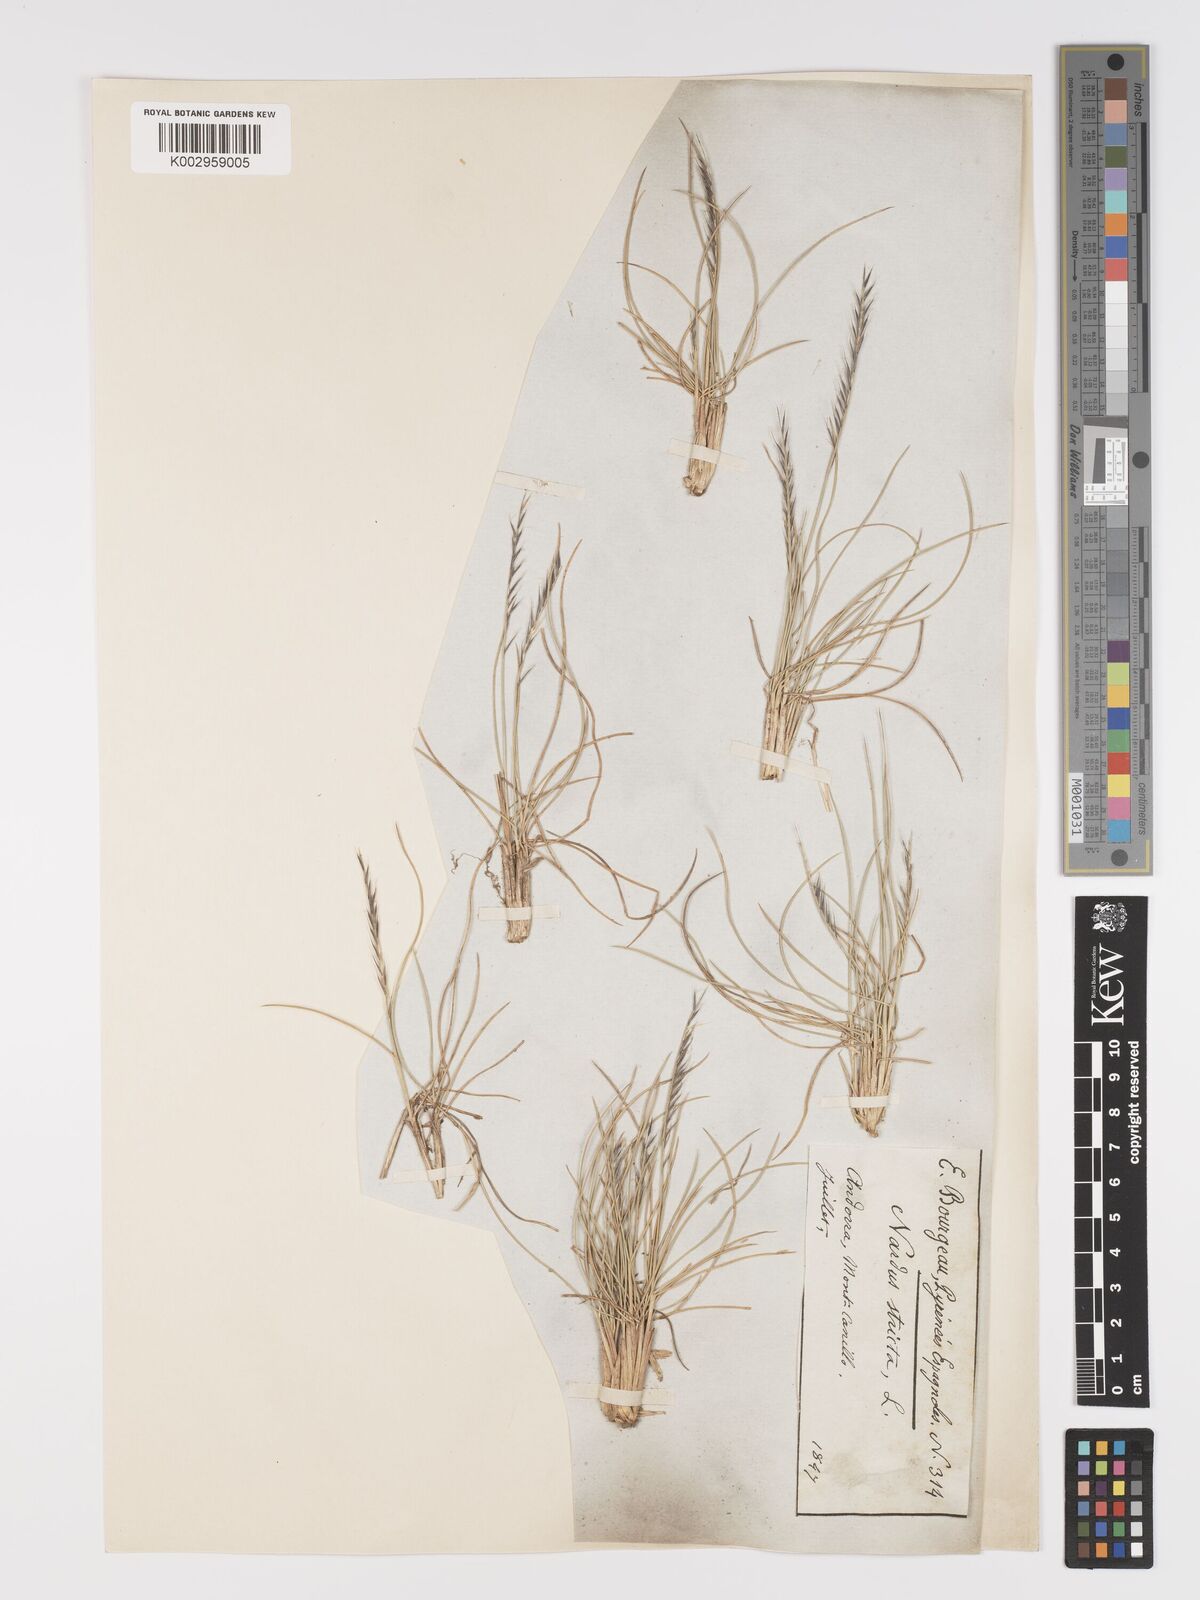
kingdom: Plantae
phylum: Tracheophyta
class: Liliopsida
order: Poales
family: Poaceae
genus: Nardus
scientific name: Nardus stricta
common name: Mat-grass
